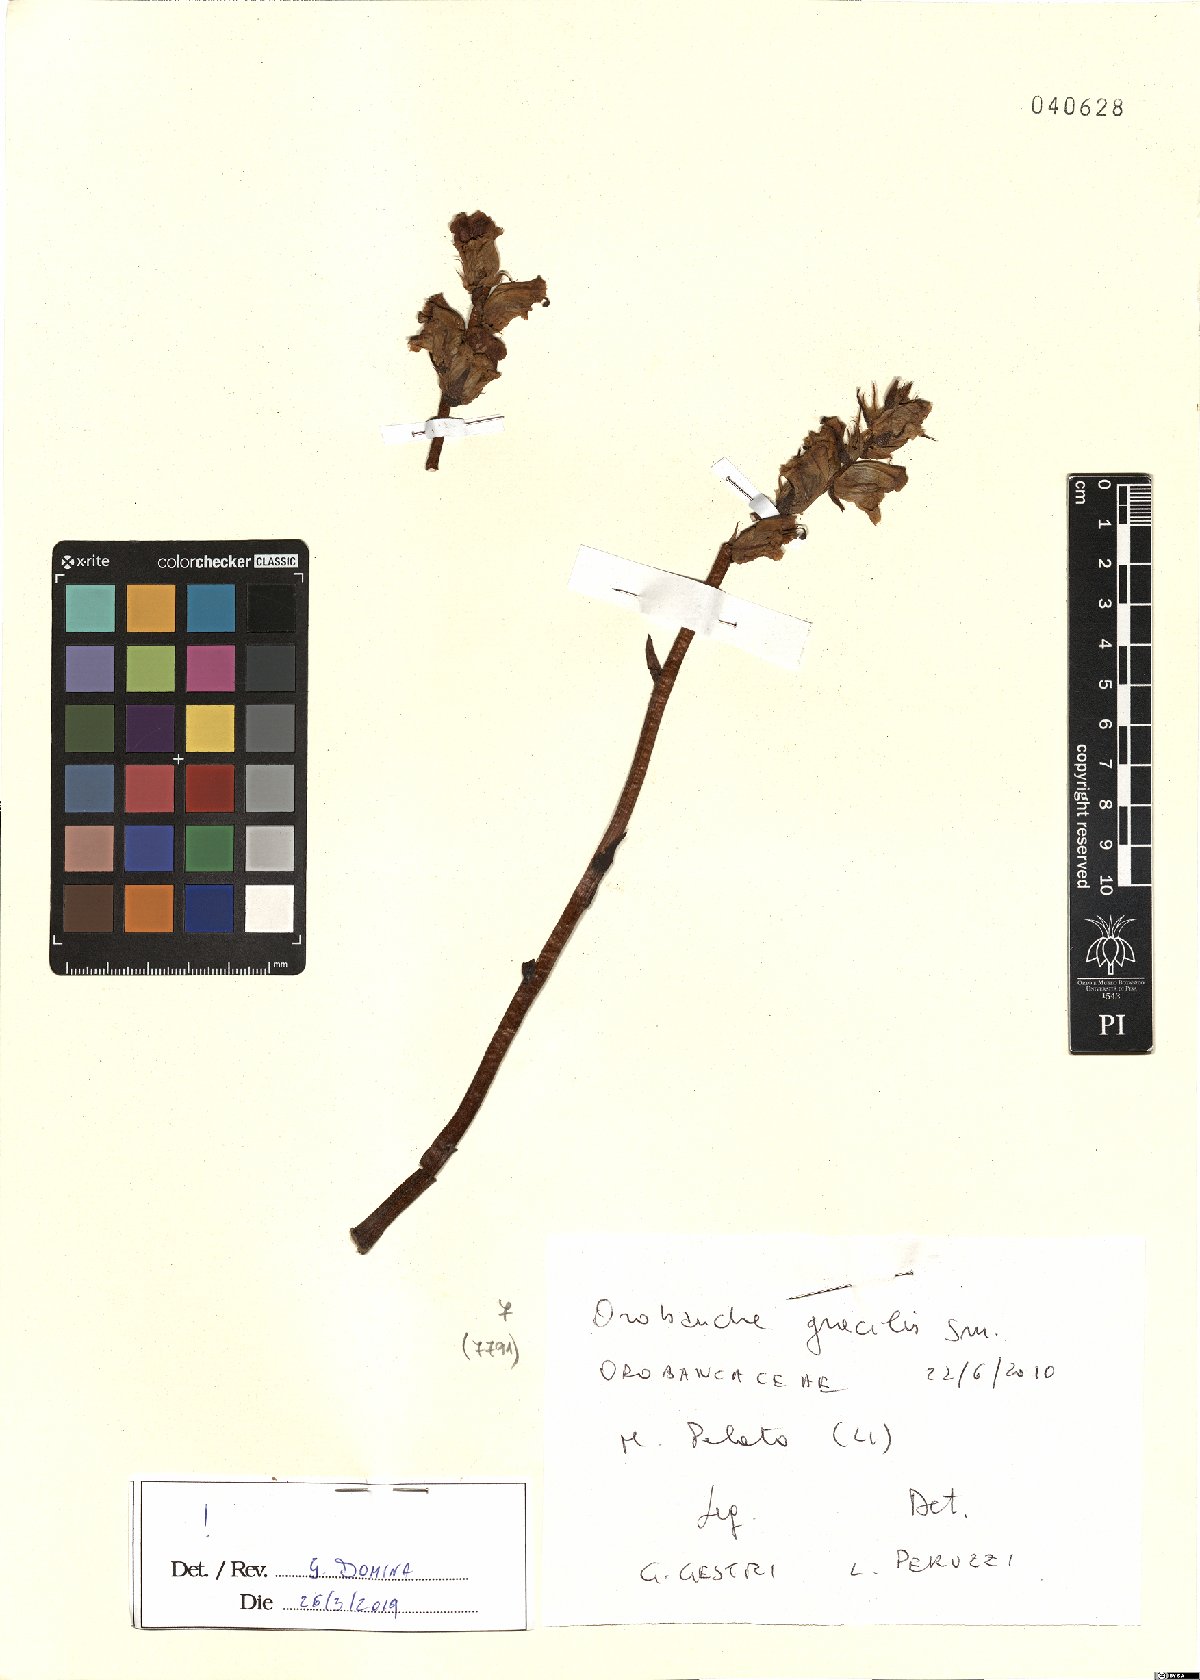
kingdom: Plantae
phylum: Tracheophyta
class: Magnoliopsida
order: Lamiales
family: Orobanchaceae
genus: Orobanche
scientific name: Orobanche gracilis
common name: Slender broomrape
